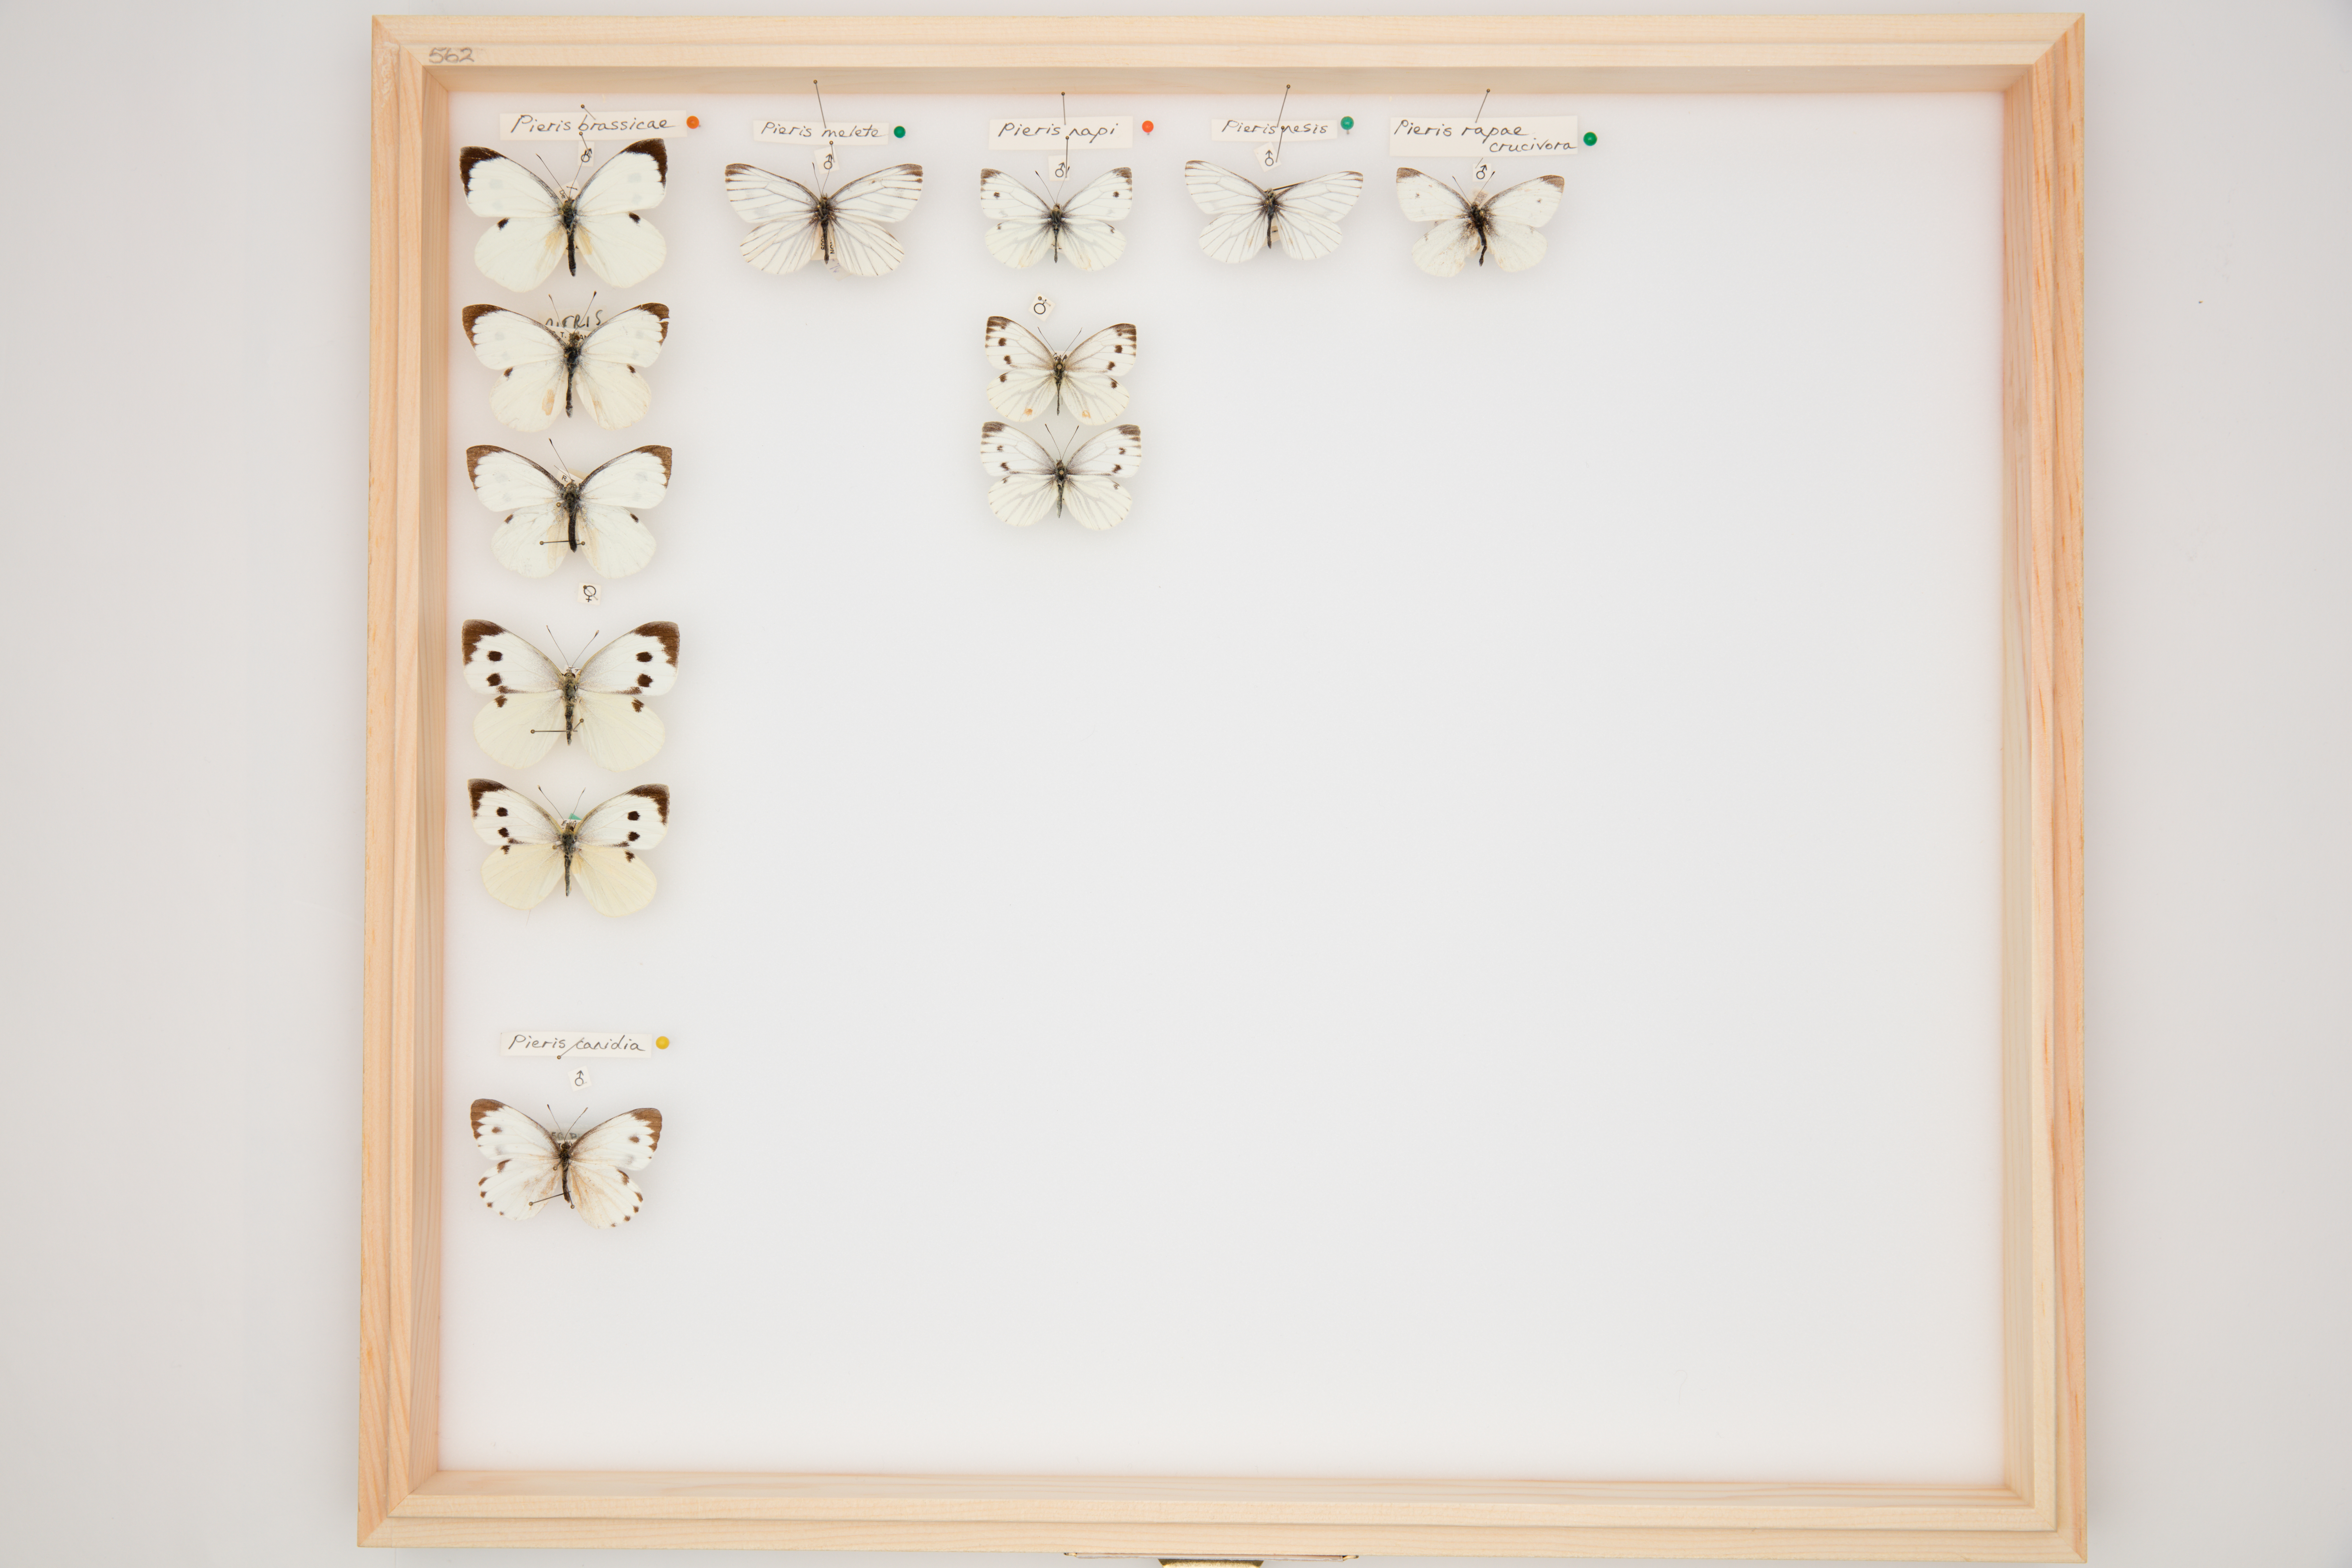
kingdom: Animalia
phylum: Arthropoda
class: Insecta
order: Lepidoptera
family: Pieridae
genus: Pieris
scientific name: Pieris brassicae
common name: Large white
